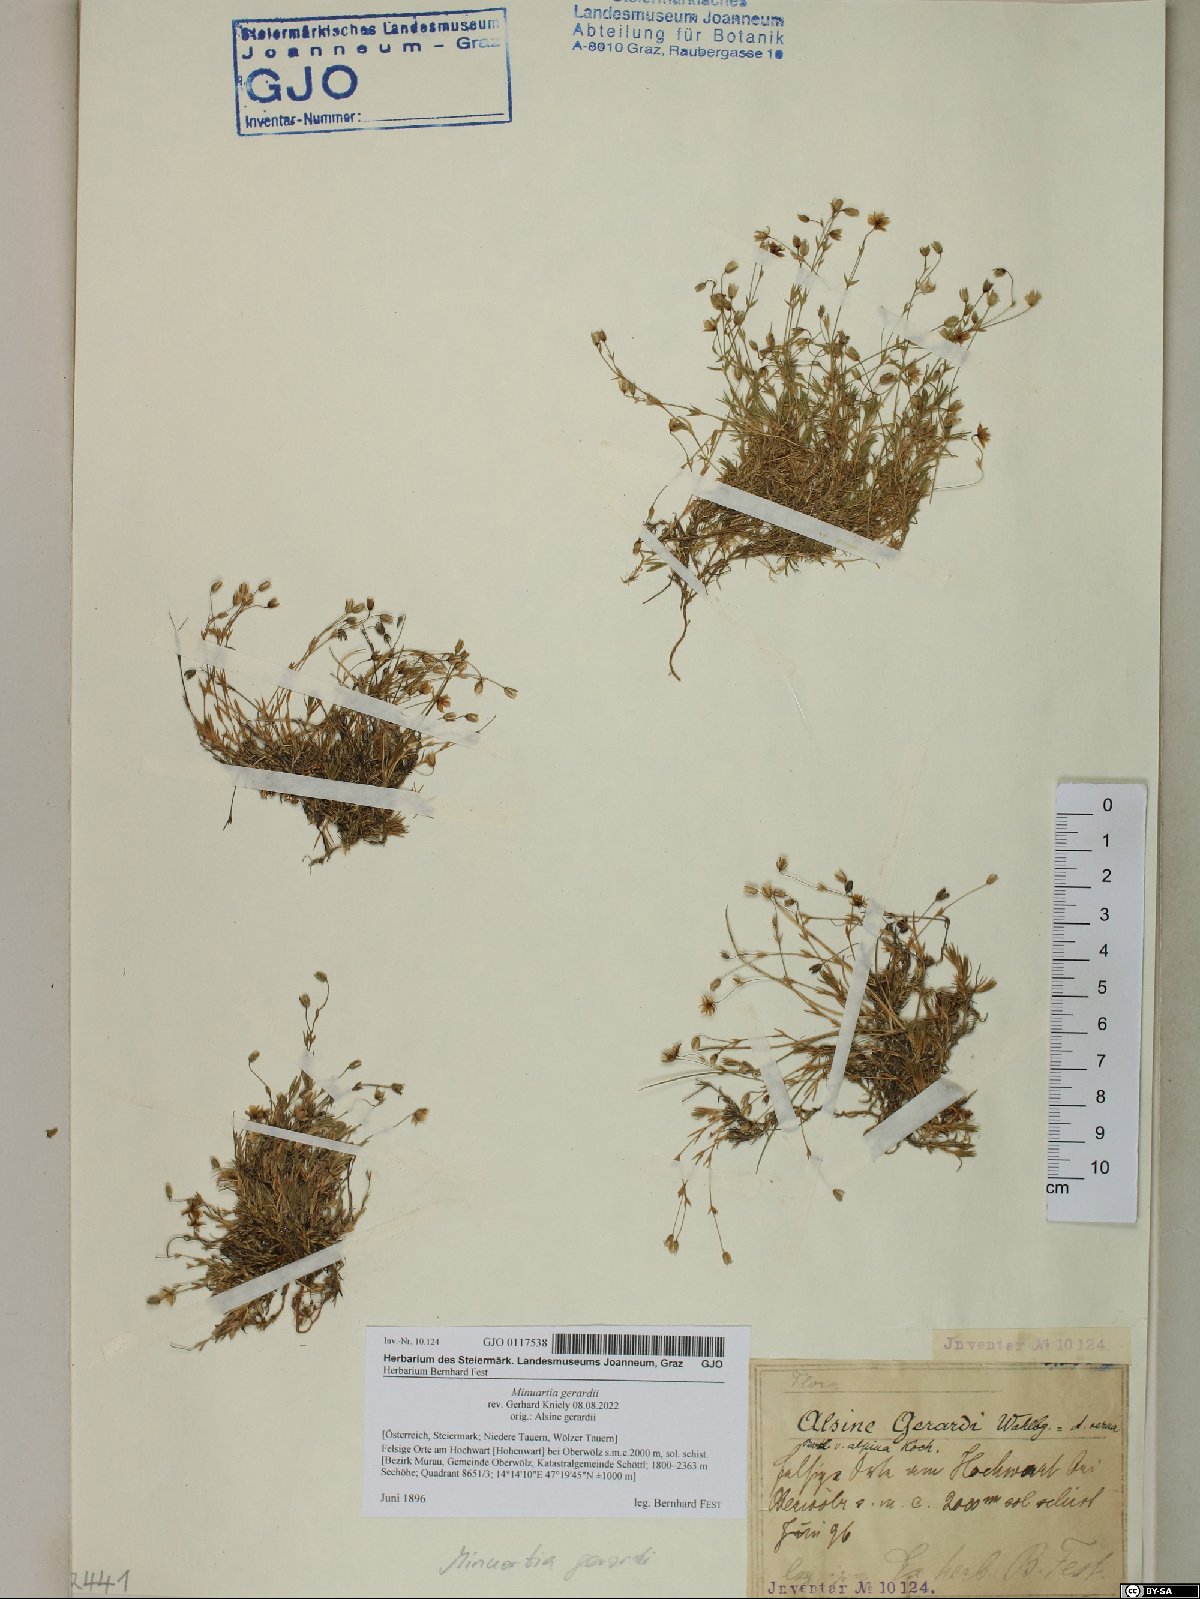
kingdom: Plantae
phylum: Tracheophyta
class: Magnoliopsida
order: Caryophyllales
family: Caryophyllaceae
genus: Sabulina
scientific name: Sabulina verna
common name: Spring sandwort
